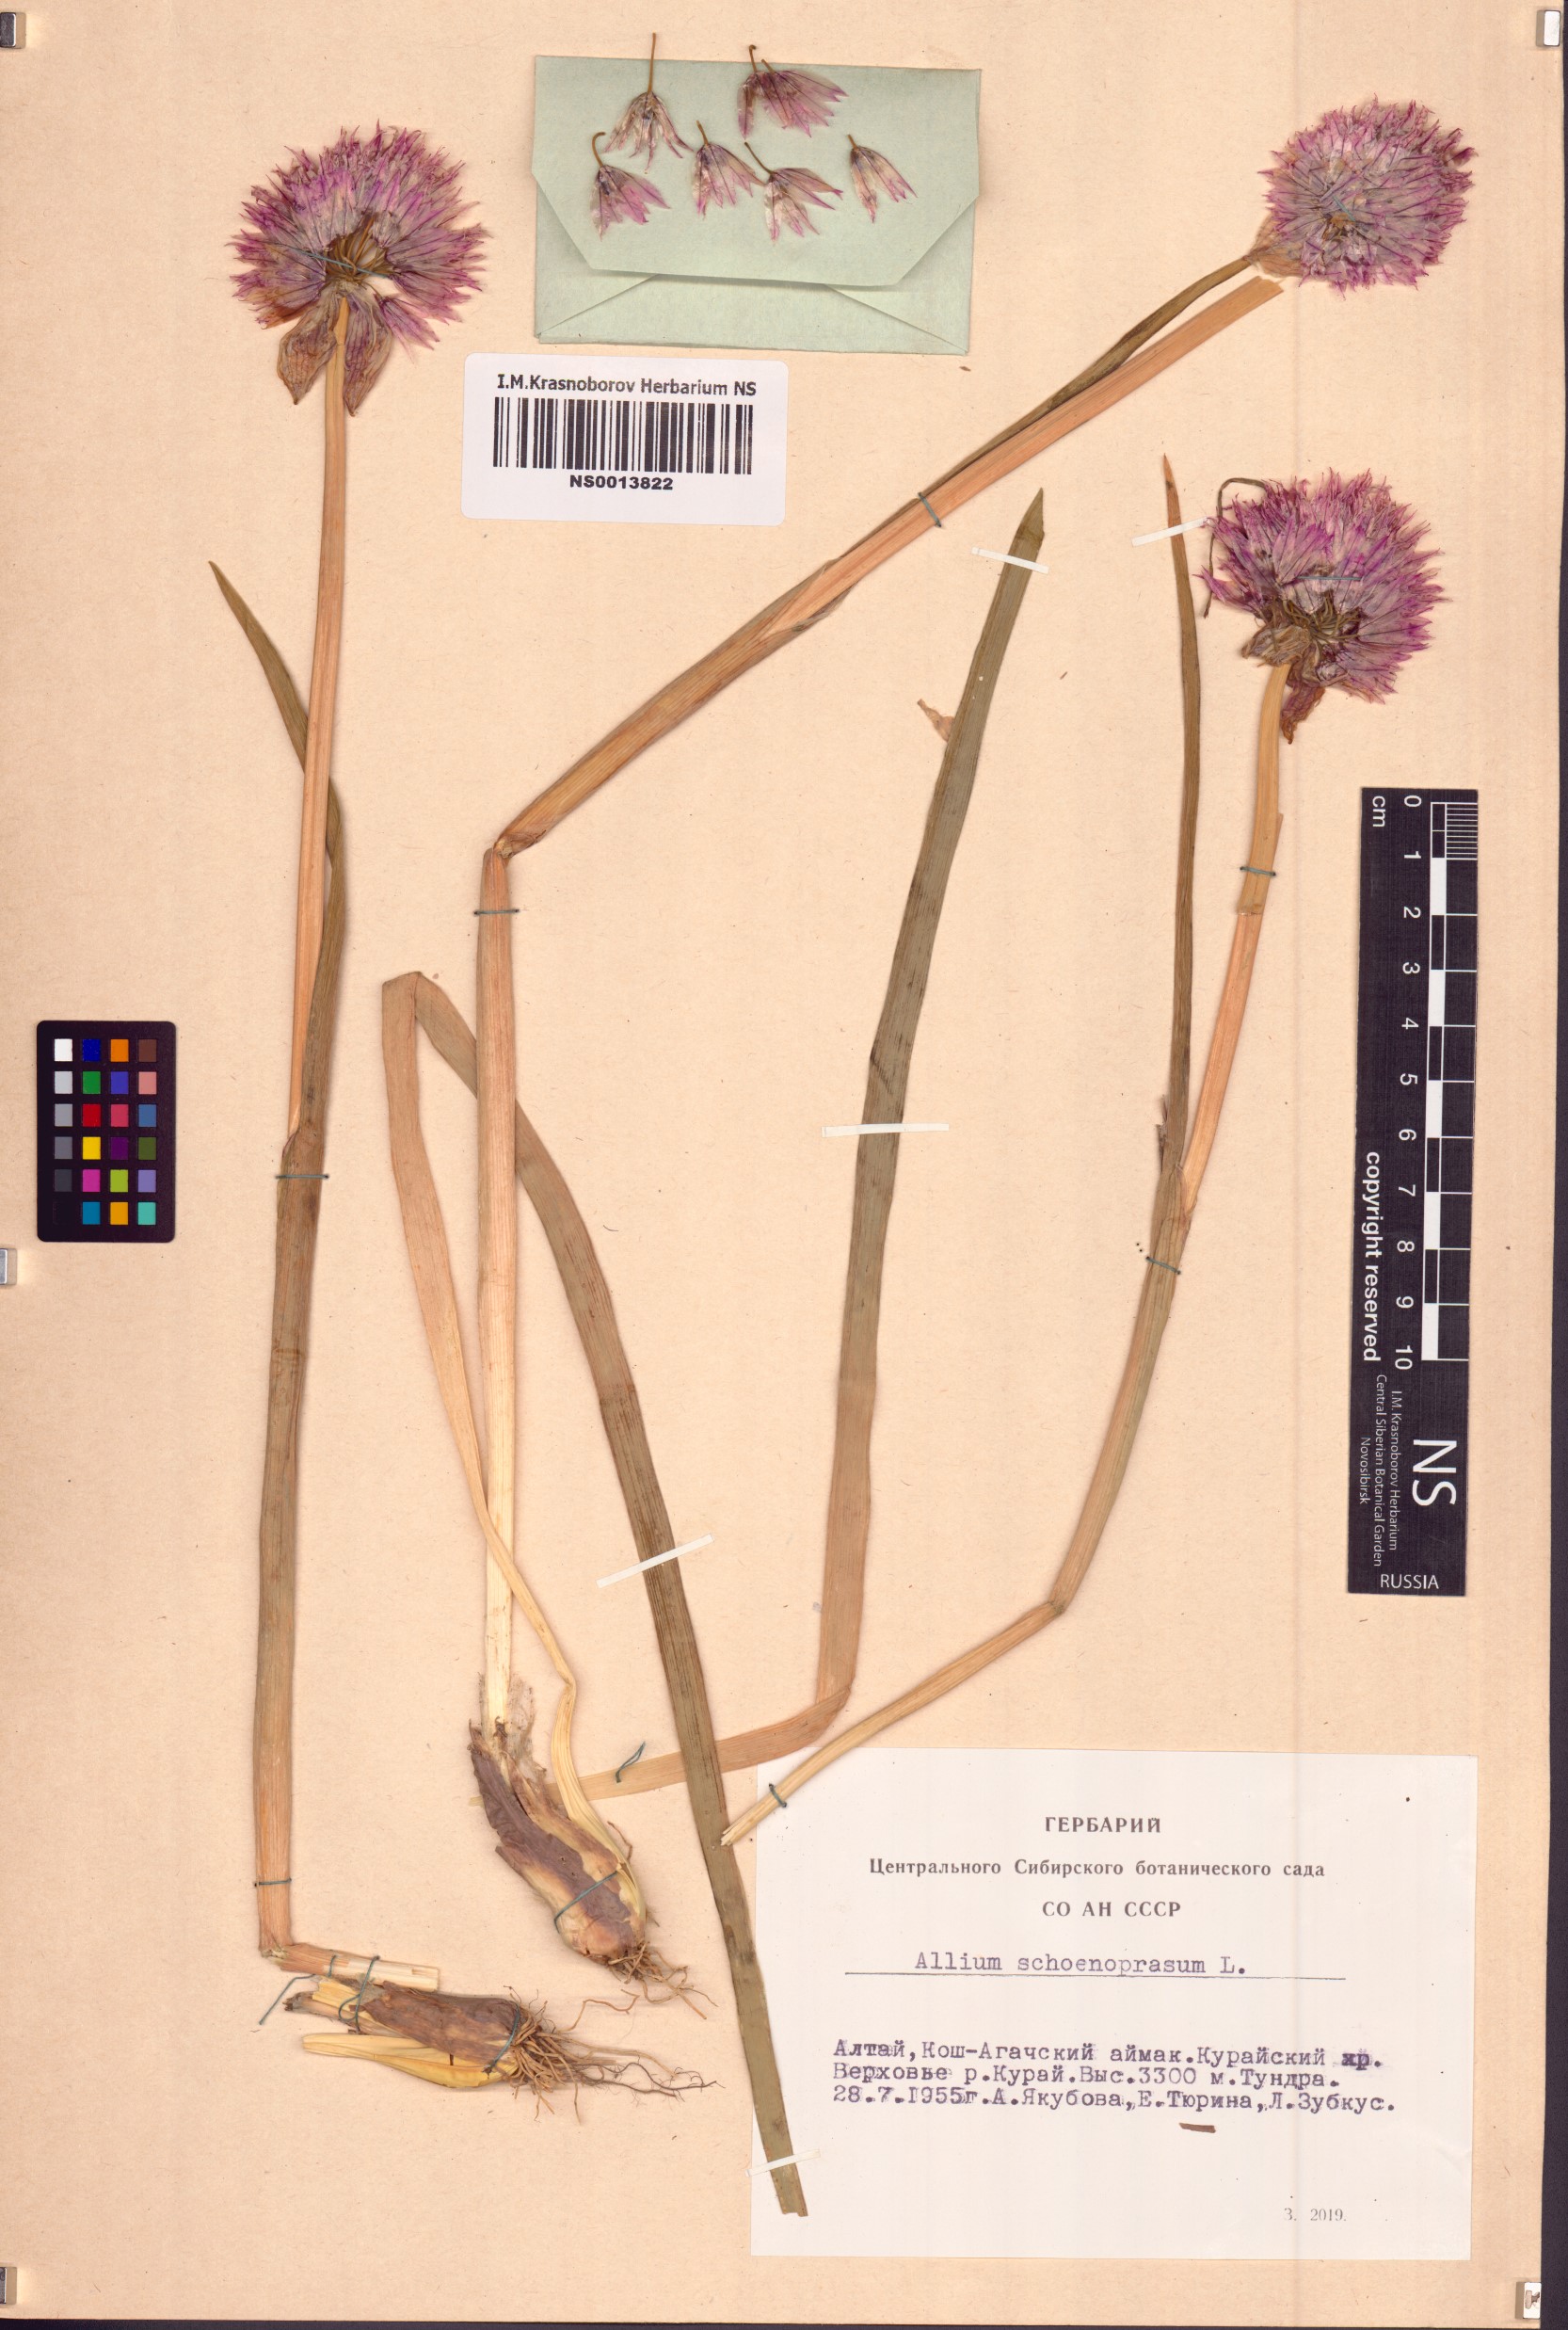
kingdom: Plantae
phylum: Tracheophyta
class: Liliopsida
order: Asparagales
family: Amaryllidaceae
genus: Allium
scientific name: Allium schoenoprasum
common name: Chives
